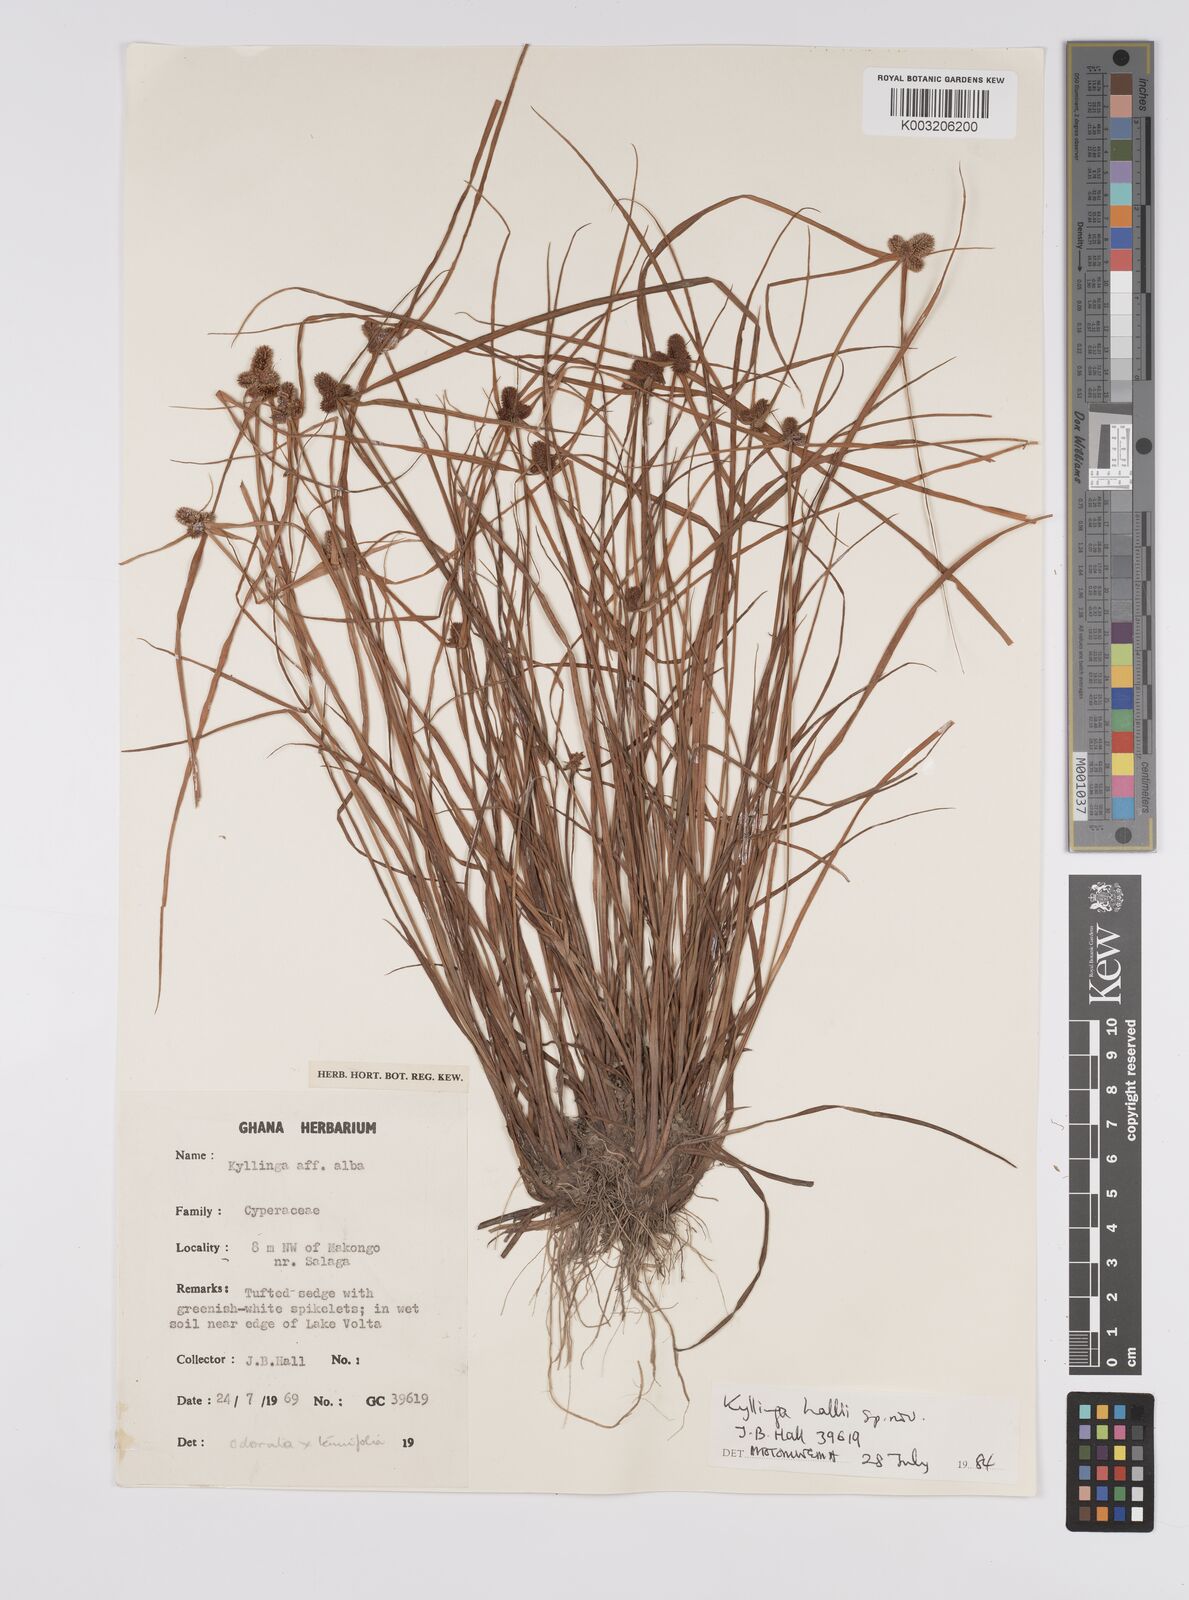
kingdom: Plantae
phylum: Tracheophyta
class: Liliopsida
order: Poales
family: Cyperaceae
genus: Cyperus
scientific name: Cyperus
